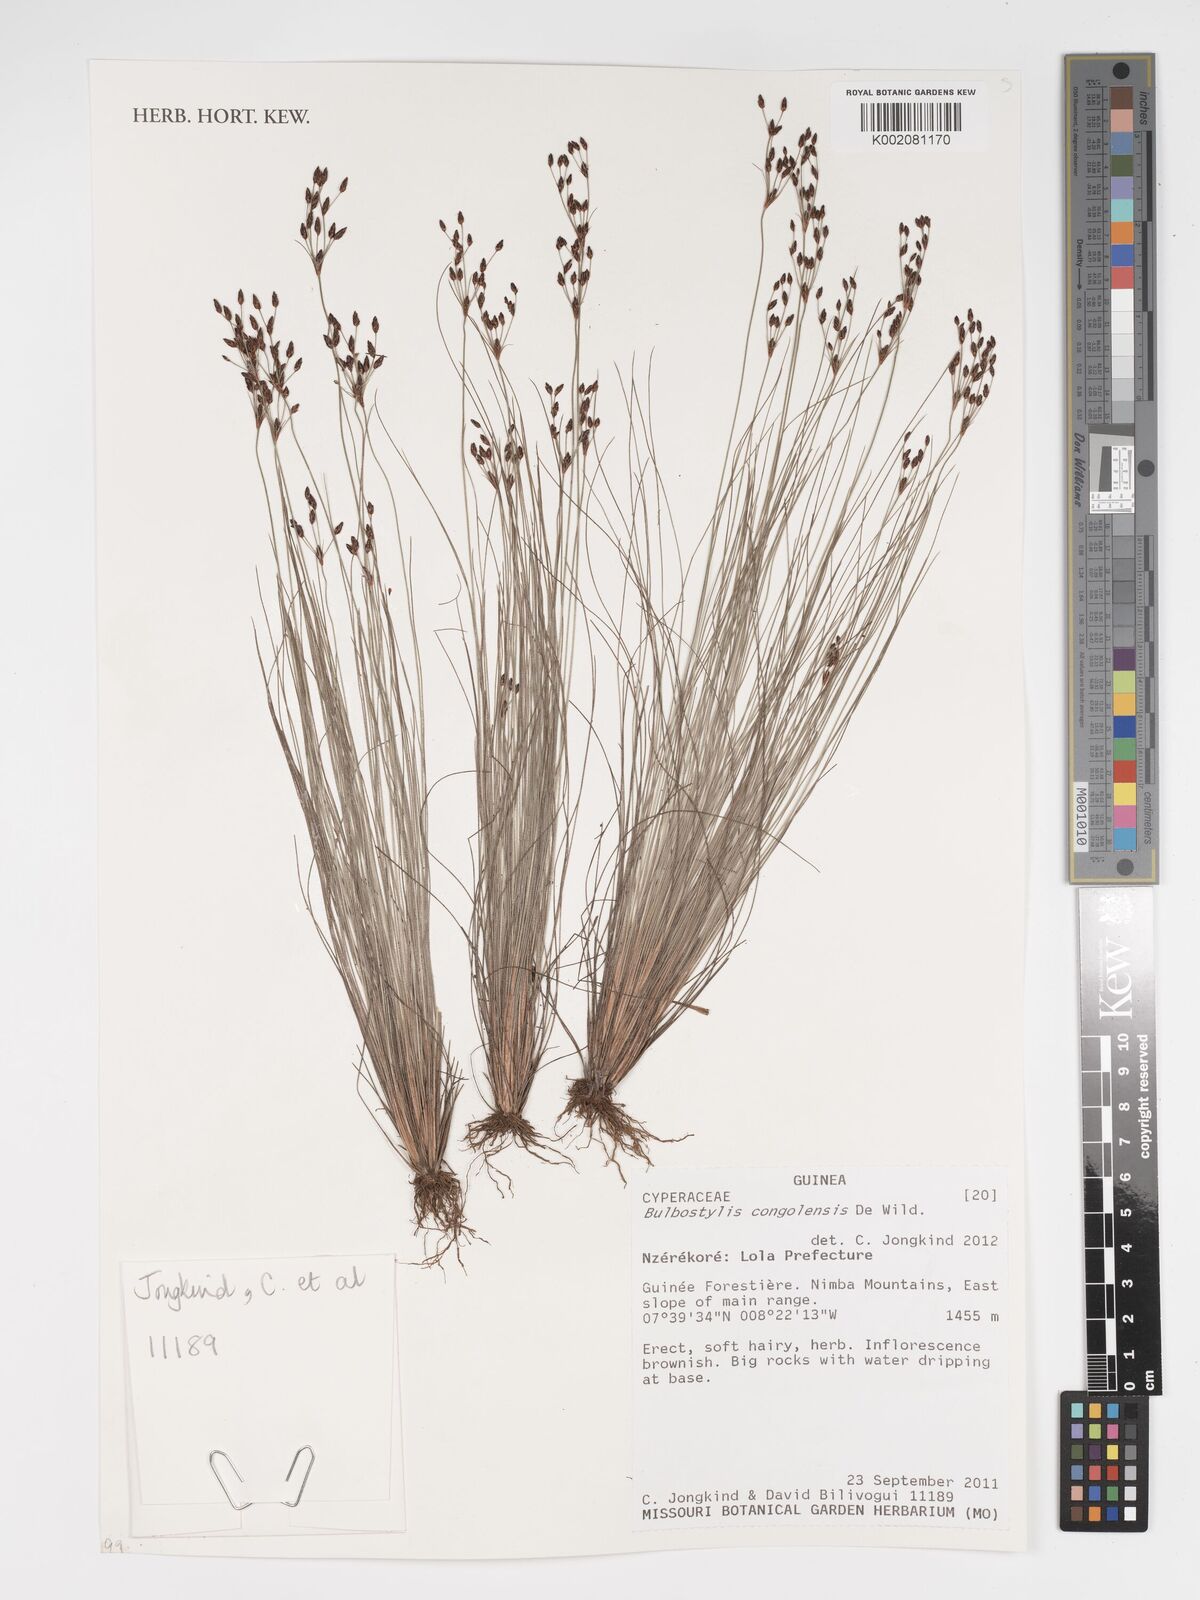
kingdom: Plantae
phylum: Tracheophyta
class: Liliopsida
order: Poales
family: Cyperaceae
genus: Bulbostylis
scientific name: Bulbostylis congolensis
